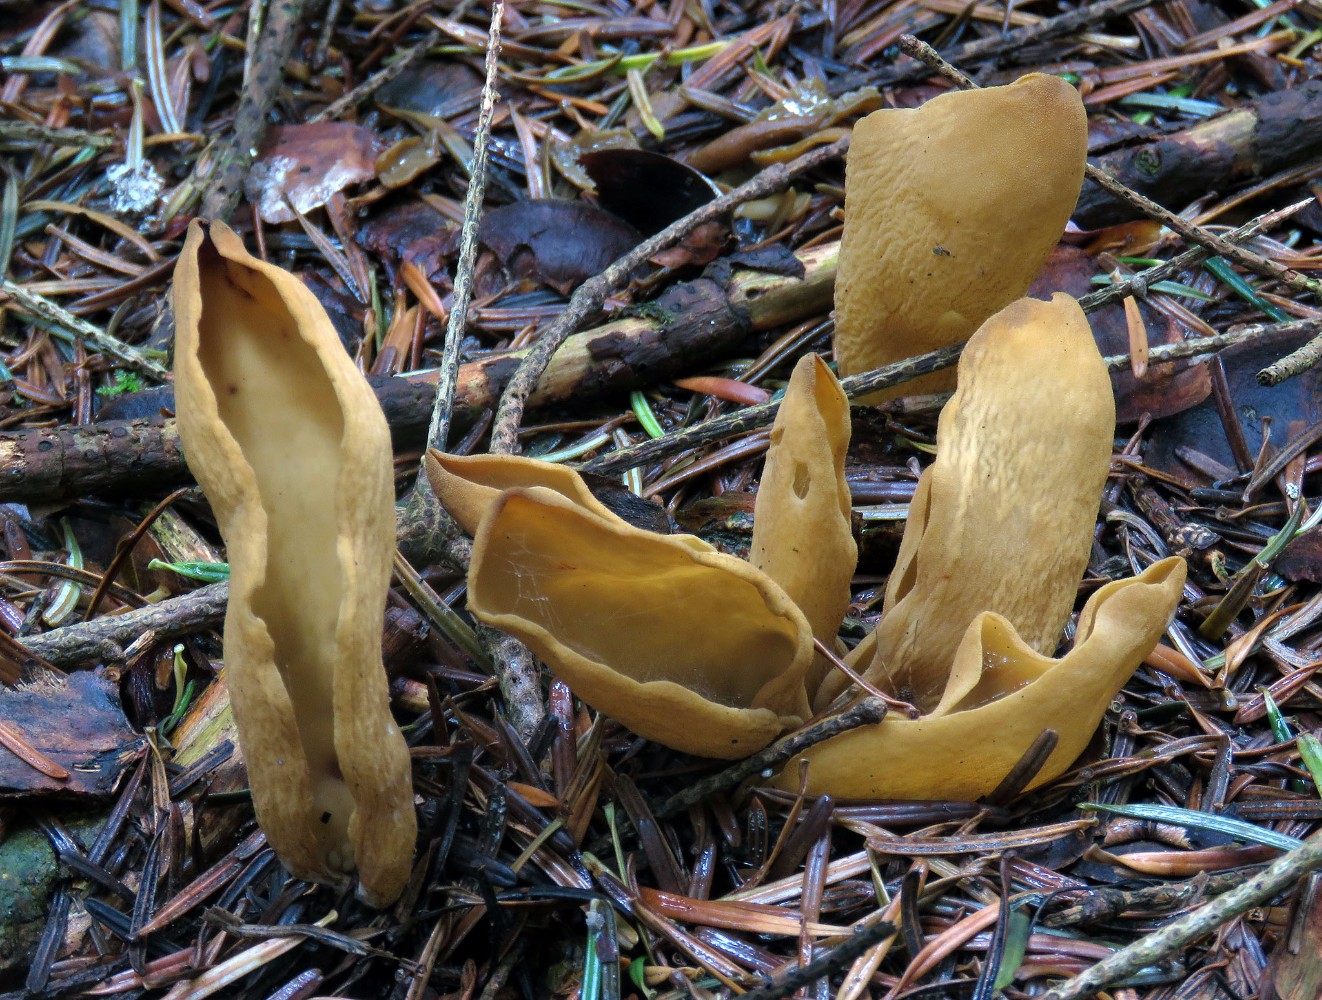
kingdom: Fungi
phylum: Ascomycota
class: Pezizomycetes
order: Pezizales
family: Otideaceae
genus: Otidea
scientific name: Otidea tuomikoskii
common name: kano-ørebæger
